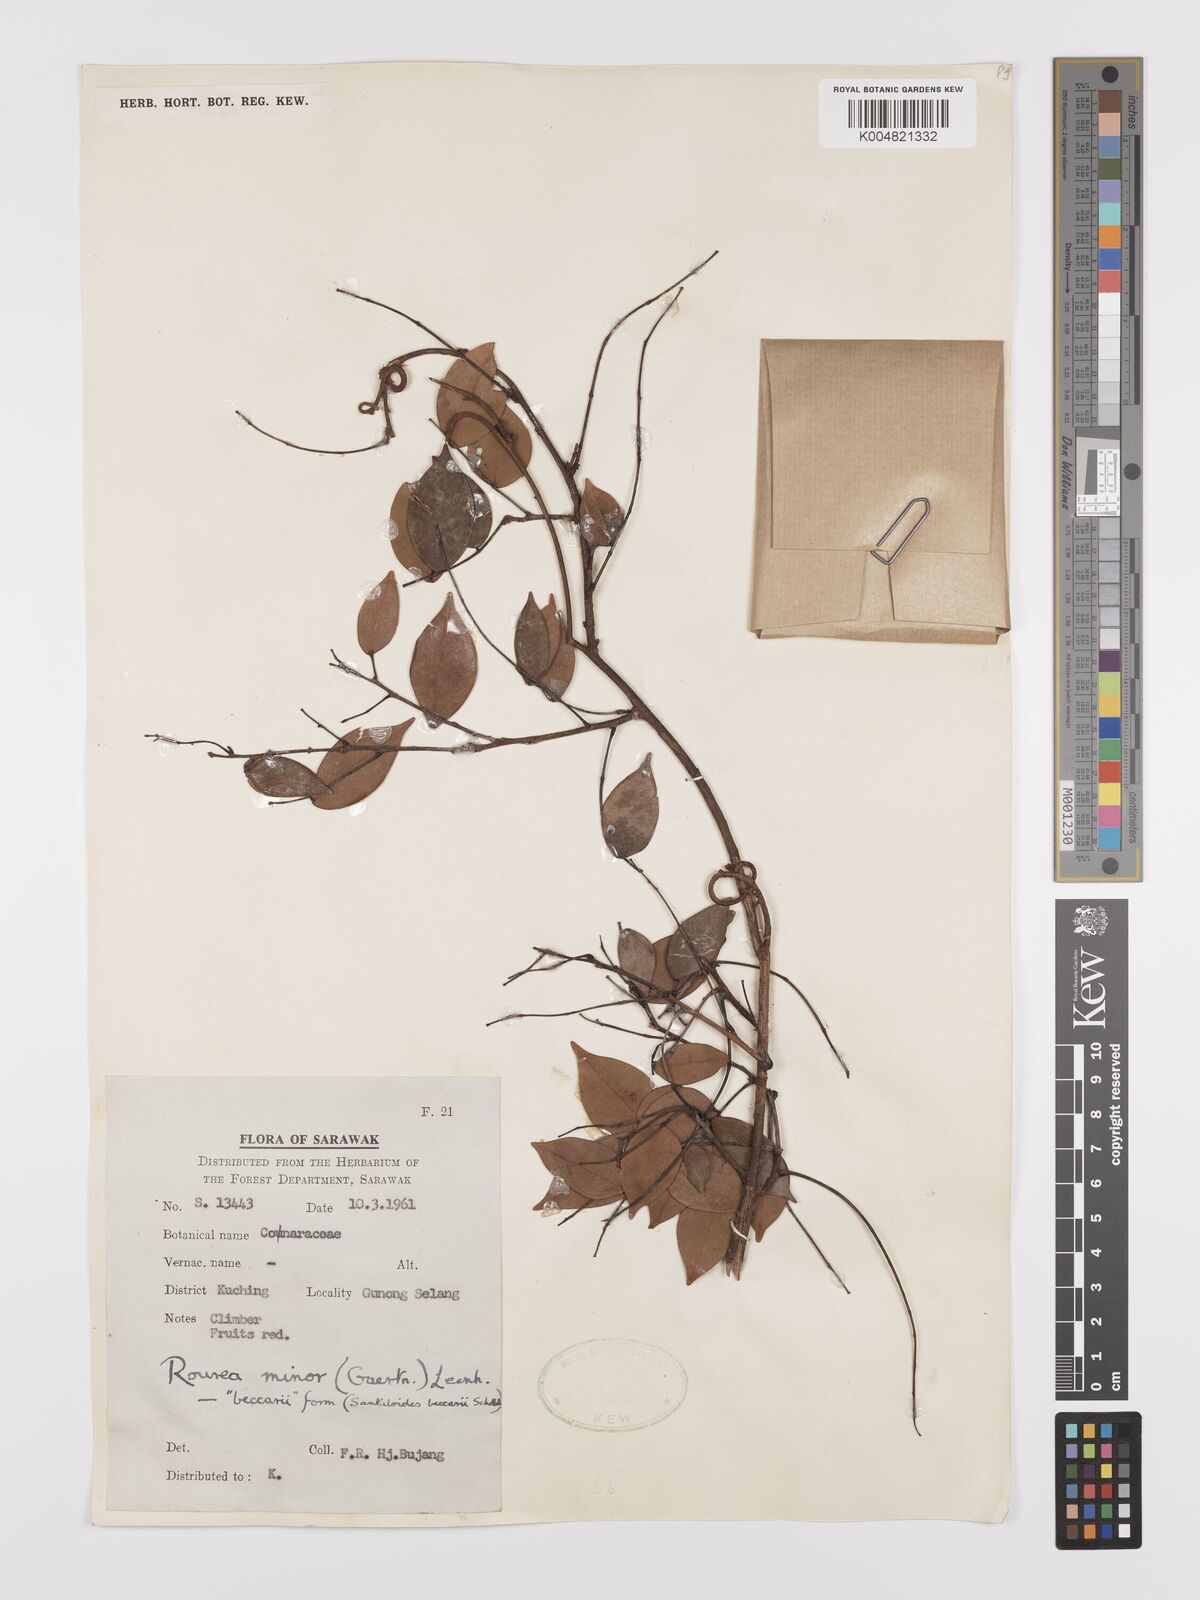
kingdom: Plantae
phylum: Tracheophyta
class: Magnoliopsida
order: Oxalidales
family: Connaraceae
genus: Rourea
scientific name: Rourea minor
